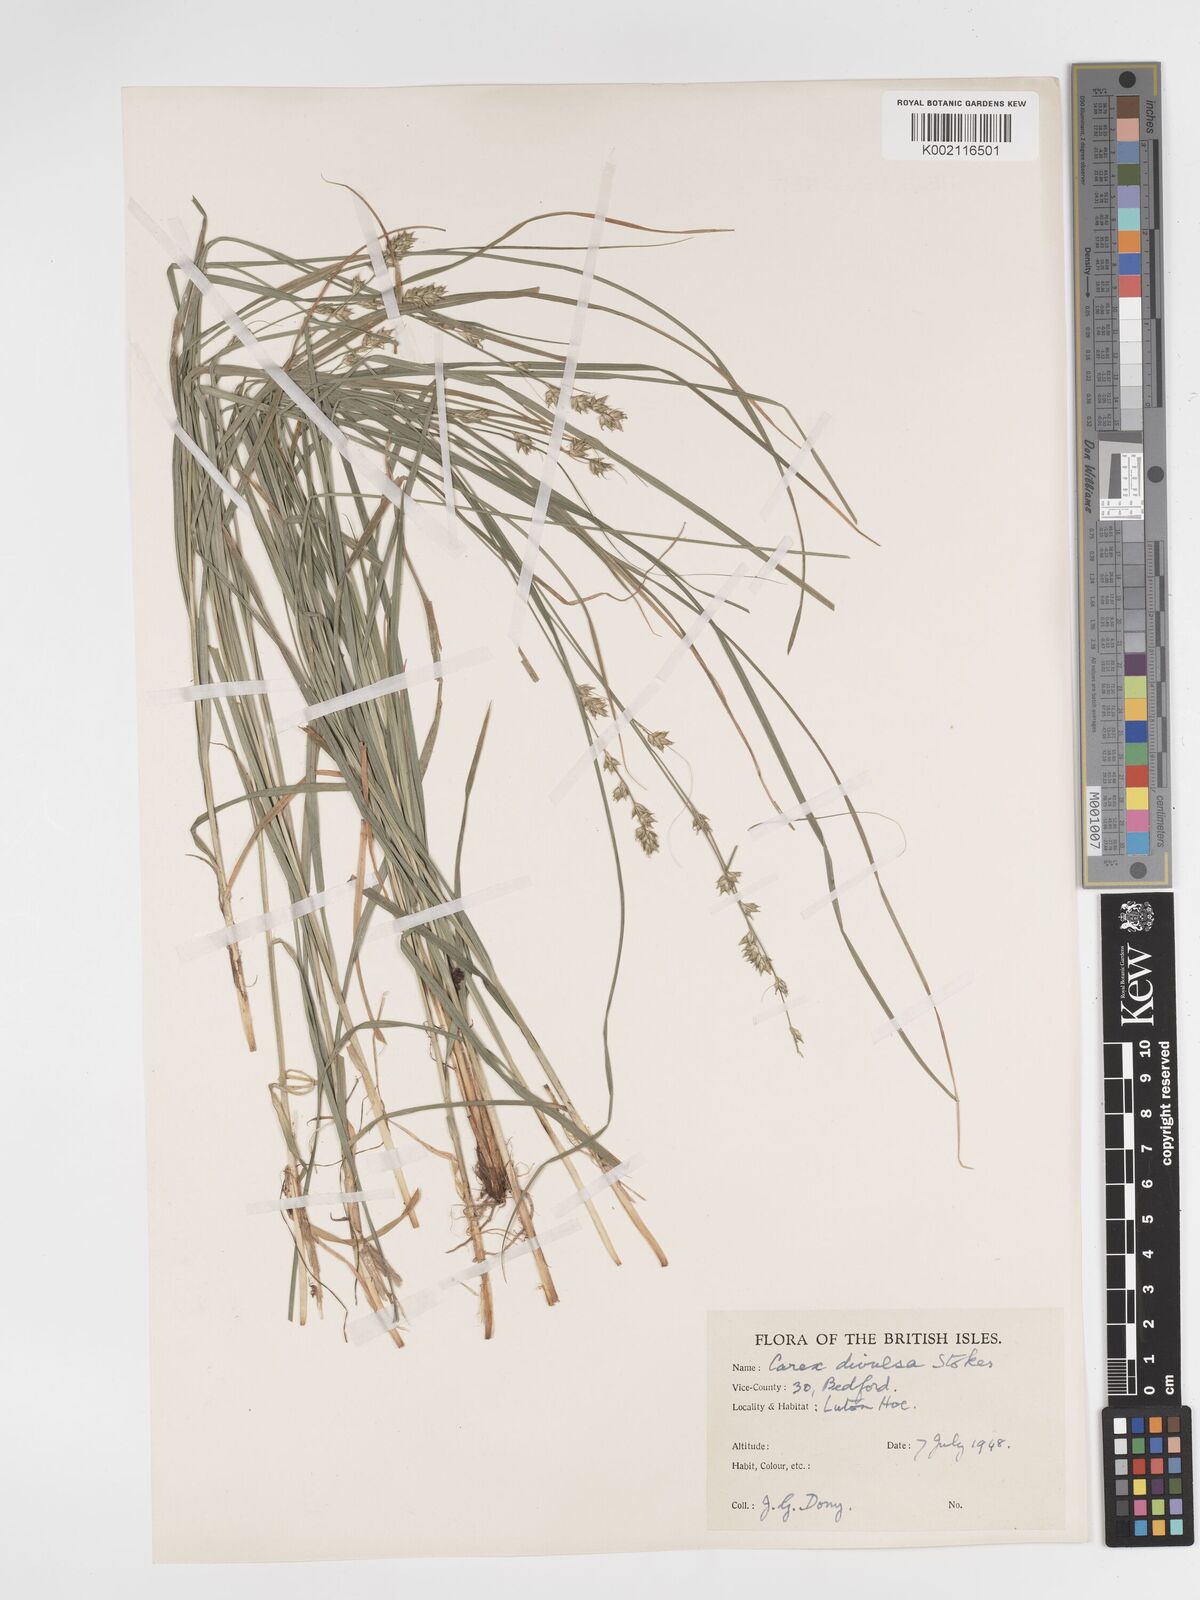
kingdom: Plantae
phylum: Tracheophyta
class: Liliopsida
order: Poales
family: Cyperaceae
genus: Carex
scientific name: Carex divulsa
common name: Grassland sedge
